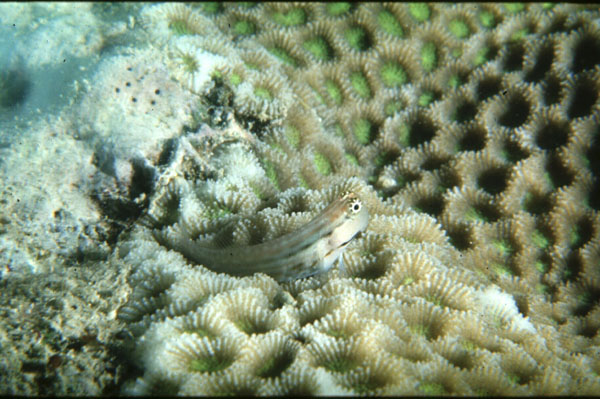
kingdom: Animalia
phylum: Chordata
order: Perciformes
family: Blenniidae
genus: Ecsenius
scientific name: Ecsenius nalolo
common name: Nalolo
